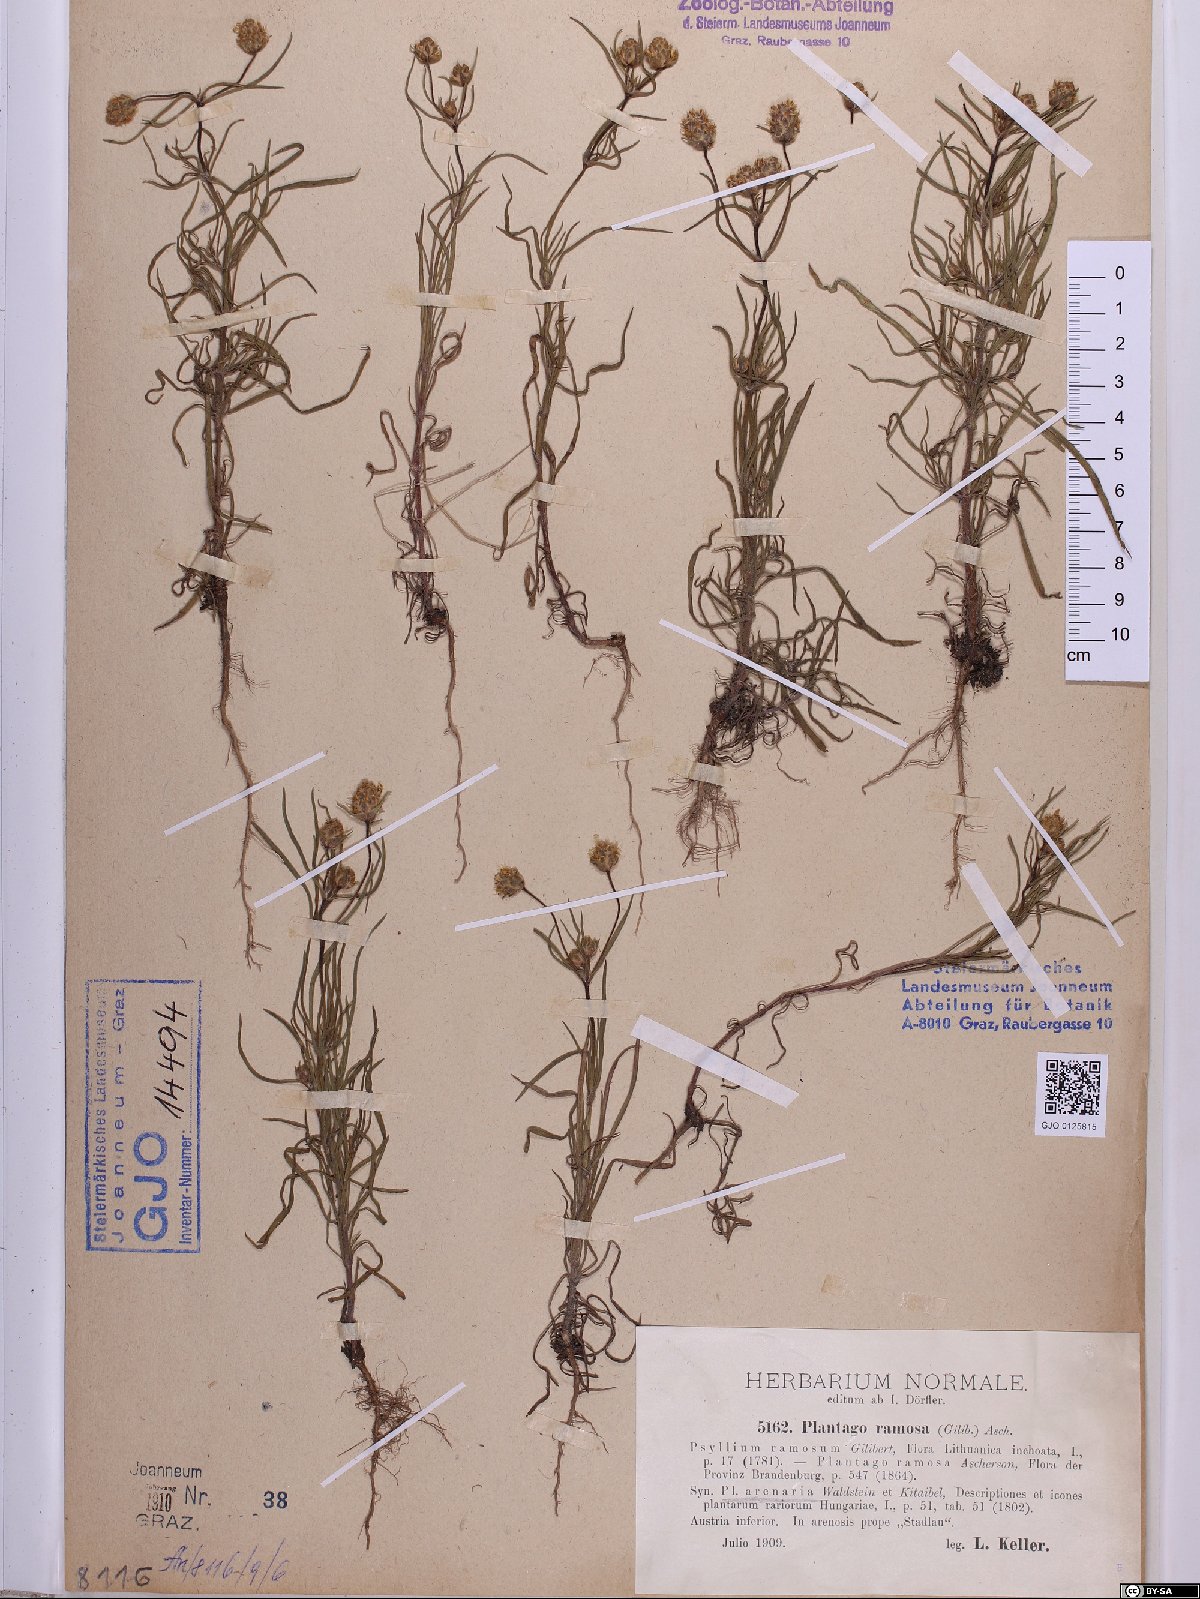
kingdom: Plantae
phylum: Tracheophyta
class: Magnoliopsida
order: Lamiales
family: Plantaginaceae
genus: Plantago
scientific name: Plantago arenaria
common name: Branched plantain
